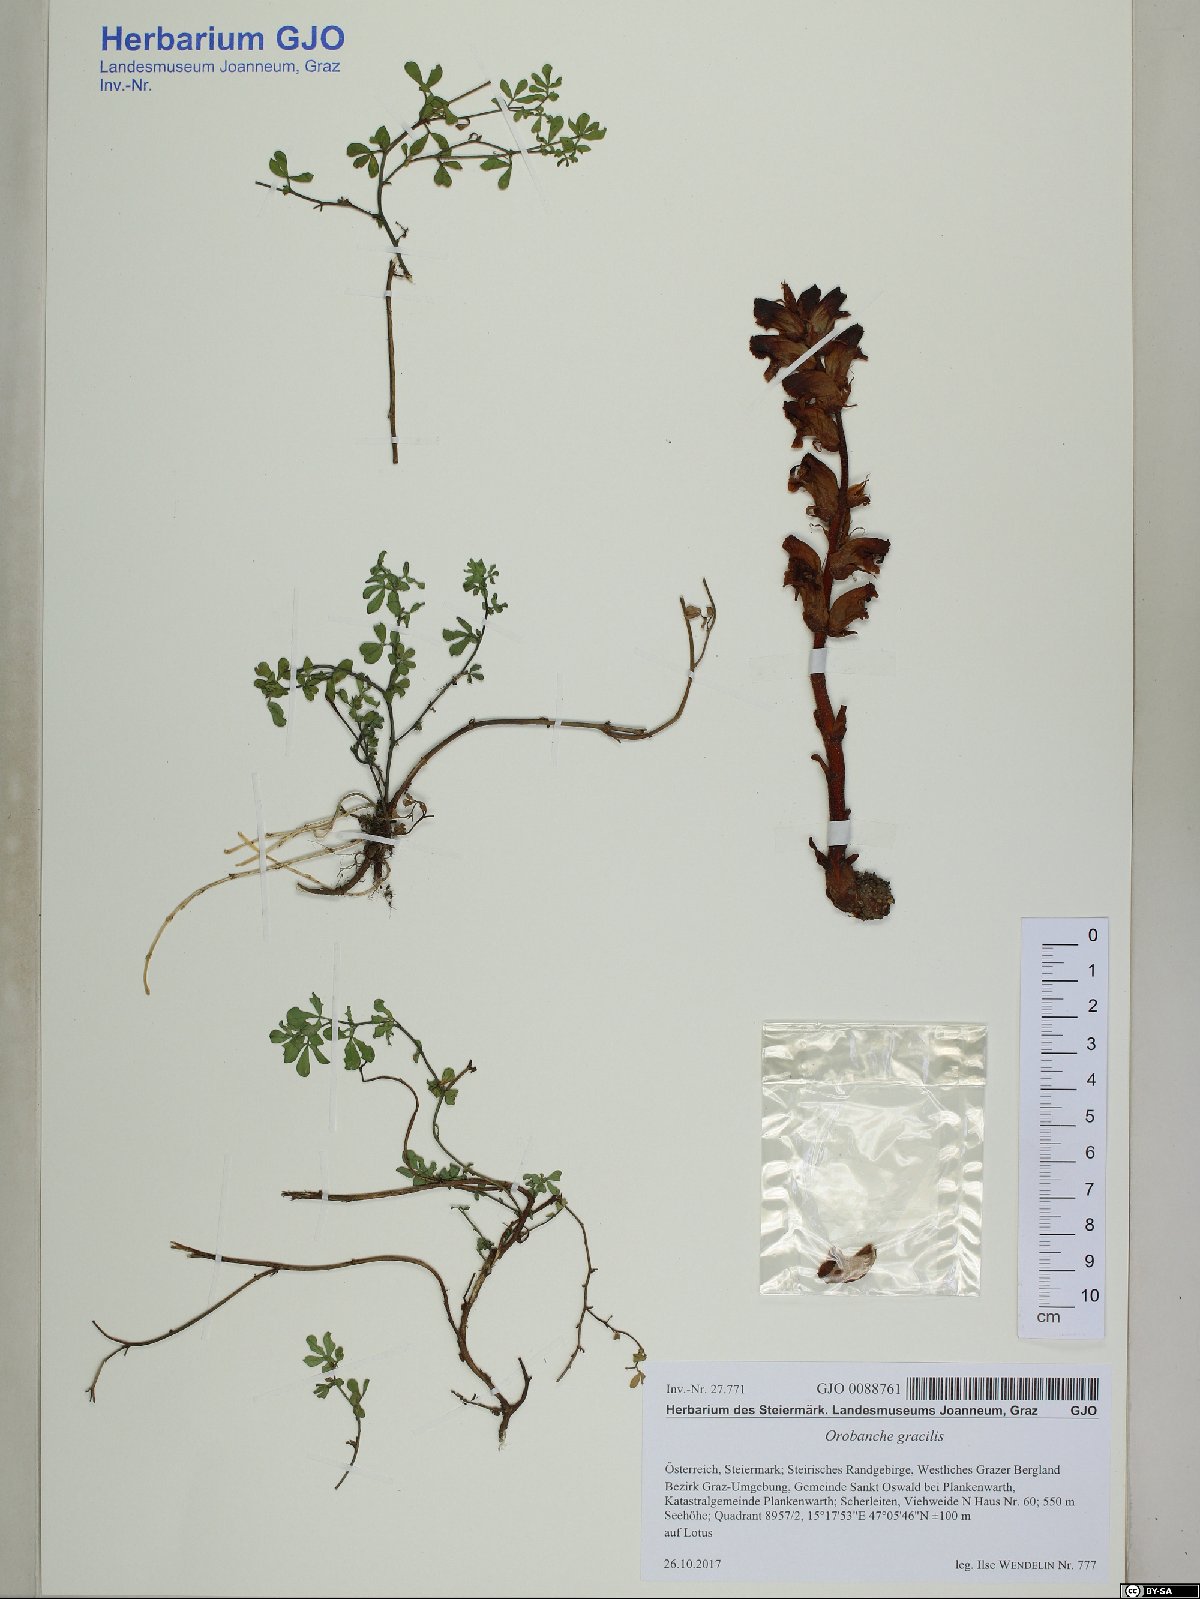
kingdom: Plantae
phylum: Tracheophyta
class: Magnoliopsida
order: Lamiales
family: Orobanchaceae
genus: Orobanche
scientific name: Orobanche gracilis
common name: Slender broomrape
